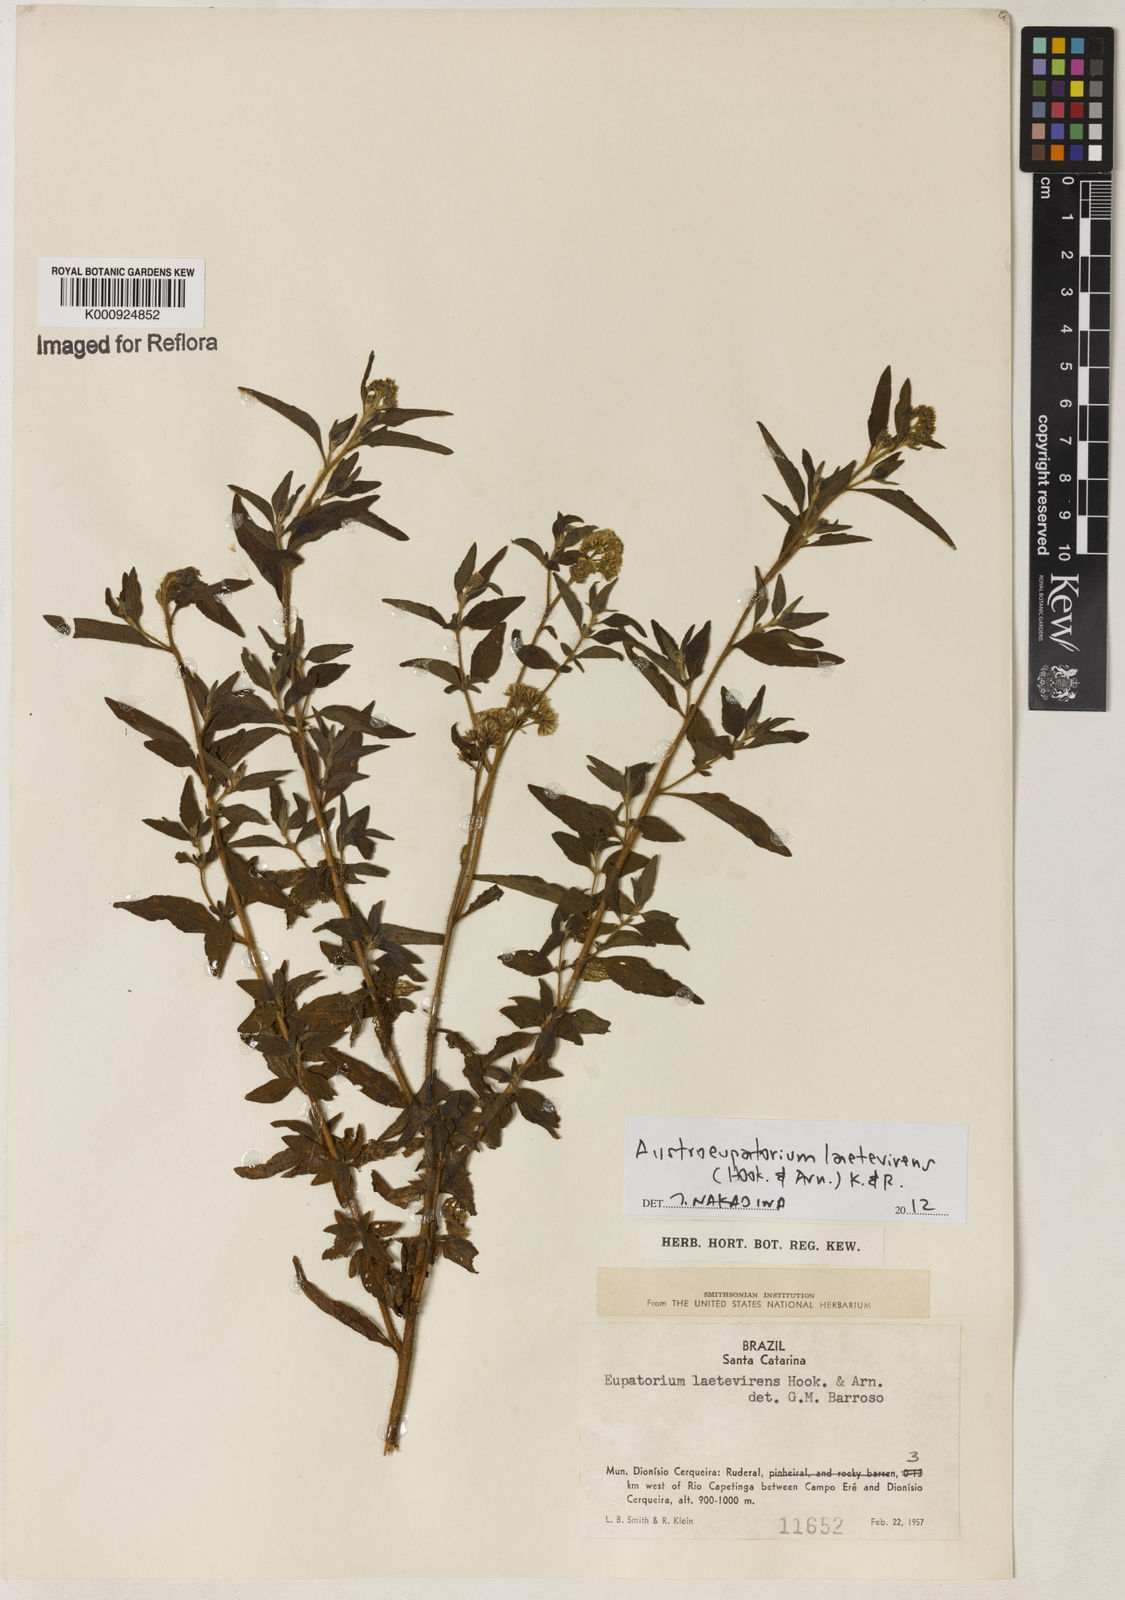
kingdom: Plantae
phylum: Tracheophyta
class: Magnoliopsida
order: Asterales
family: Asteraceae
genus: Austroeupatorium
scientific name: Austroeupatorium laetevirens
